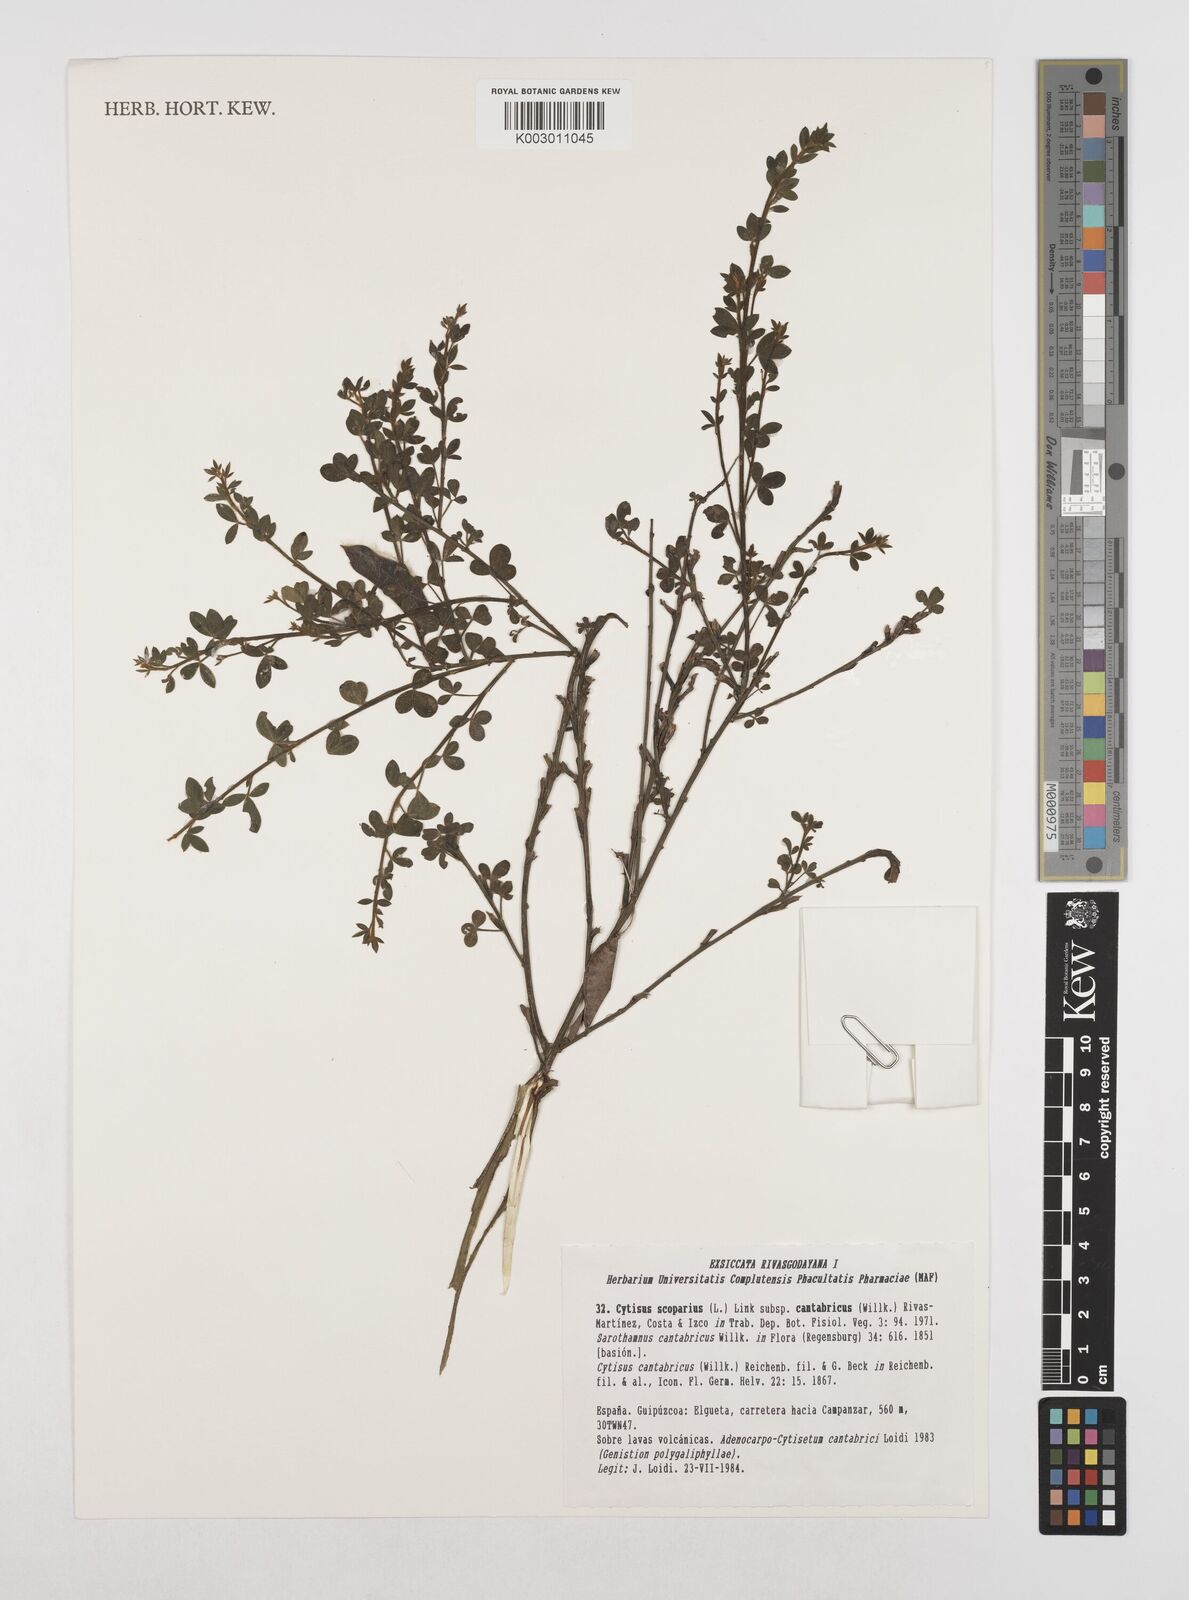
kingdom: Plantae
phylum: Tracheophyta
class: Magnoliopsida
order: Fabales
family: Fabaceae
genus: Cytisus
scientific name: Cytisus scoparius
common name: Scotch broom
